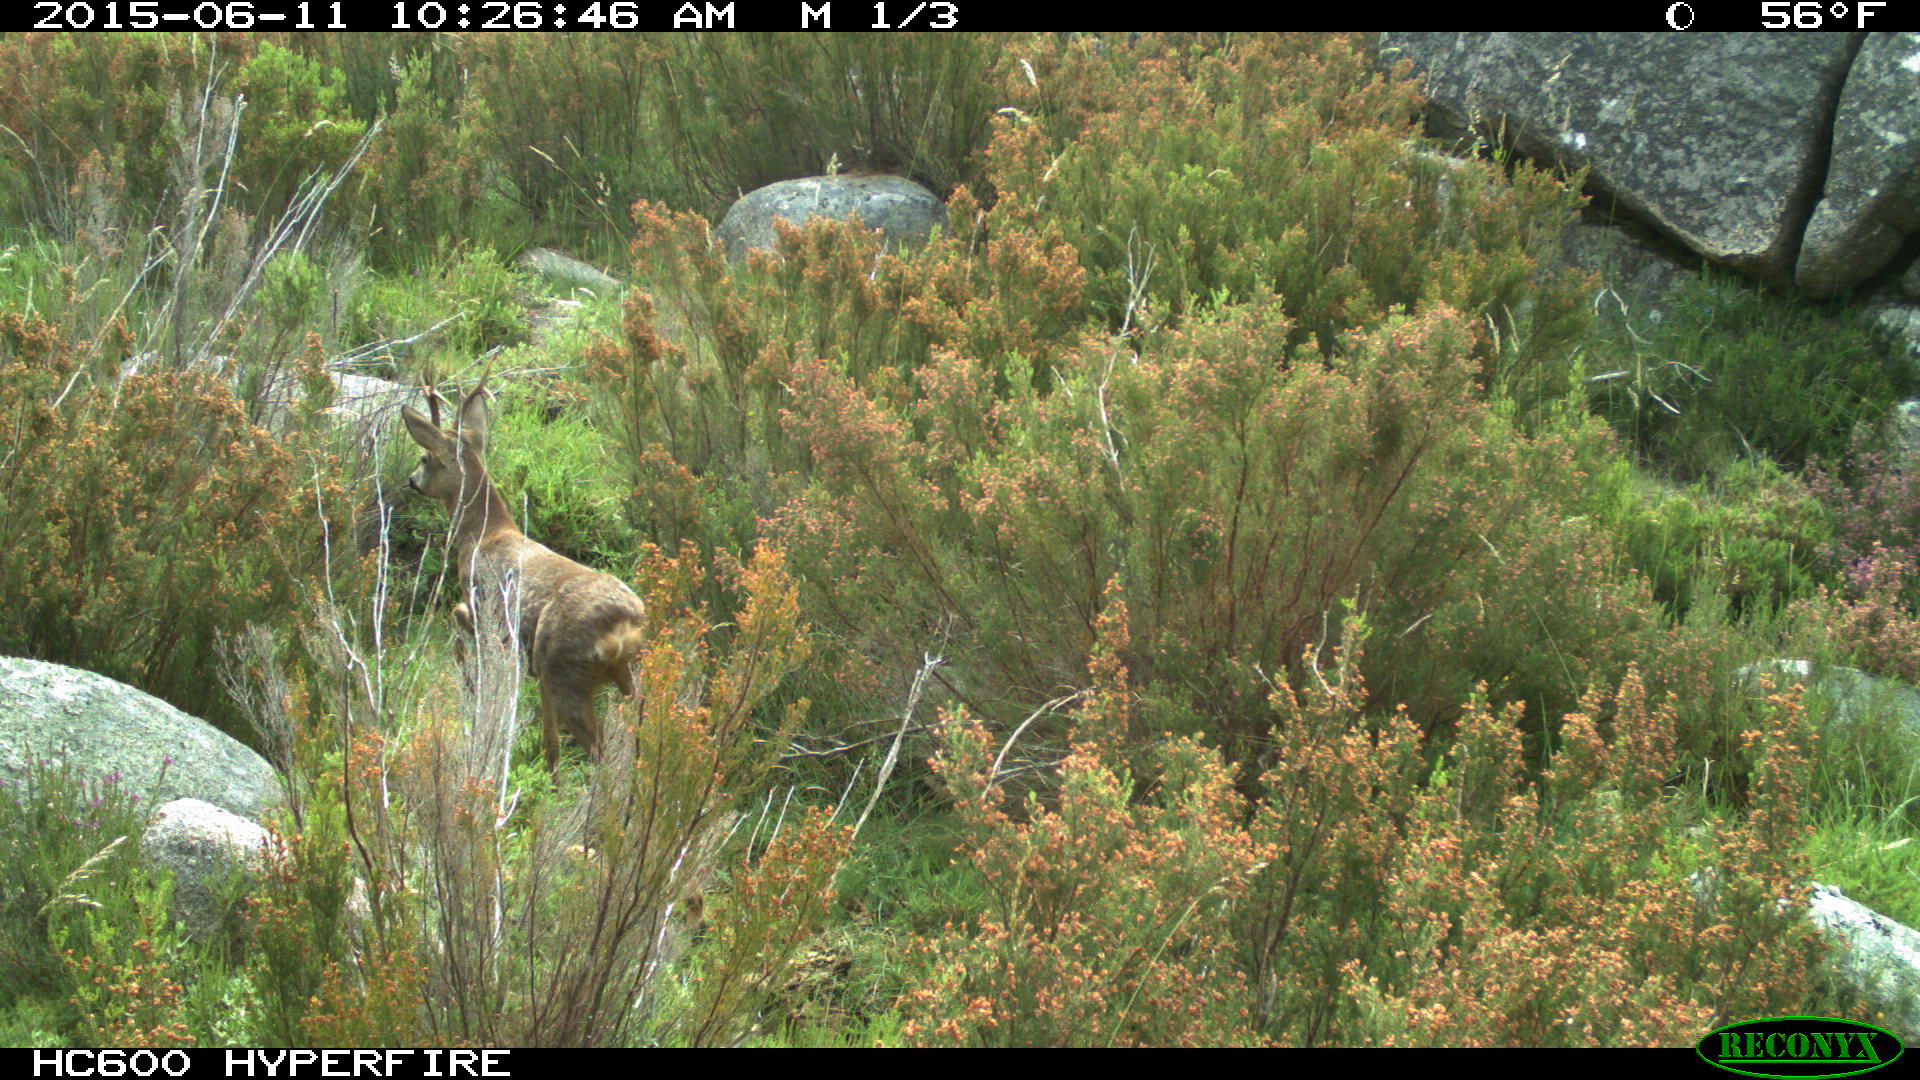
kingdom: Animalia
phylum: Chordata
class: Mammalia
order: Artiodactyla
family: Cervidae
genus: Capreolus
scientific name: Capreolus capreolus
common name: Western roe deer
